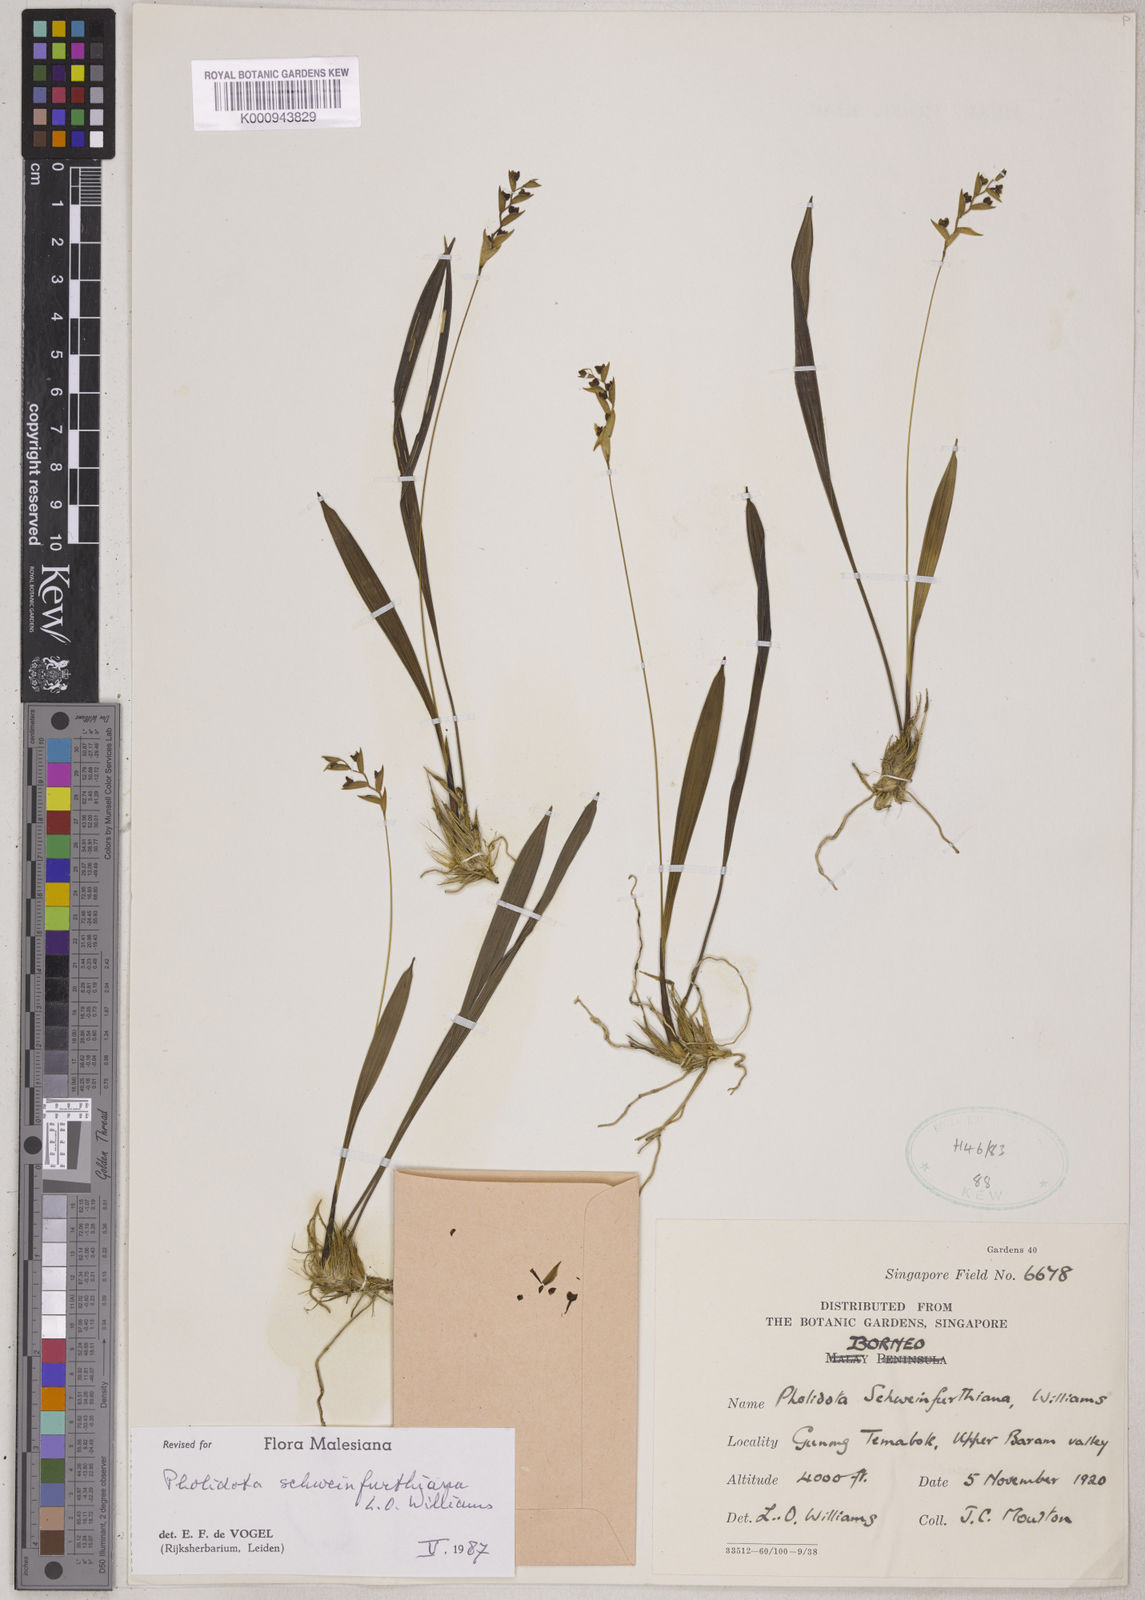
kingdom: Plantae
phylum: Tracheophyta
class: Liliopsida
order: Asparagales
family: Orchidaceae
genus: Coelogyne
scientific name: Coelogyne schweinfurthiana
